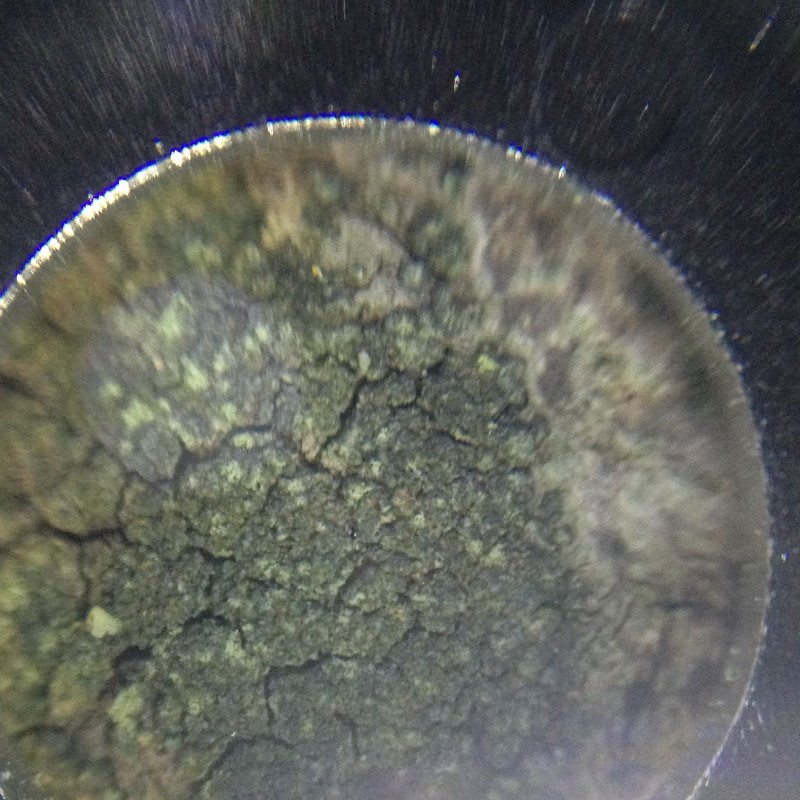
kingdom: Fungi
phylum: Ascomycota
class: Lecanoromycetes
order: Caliciales
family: Caliciaceae
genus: Buellia
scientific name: Buellia griseovirens
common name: grågrøn sortskivelav
